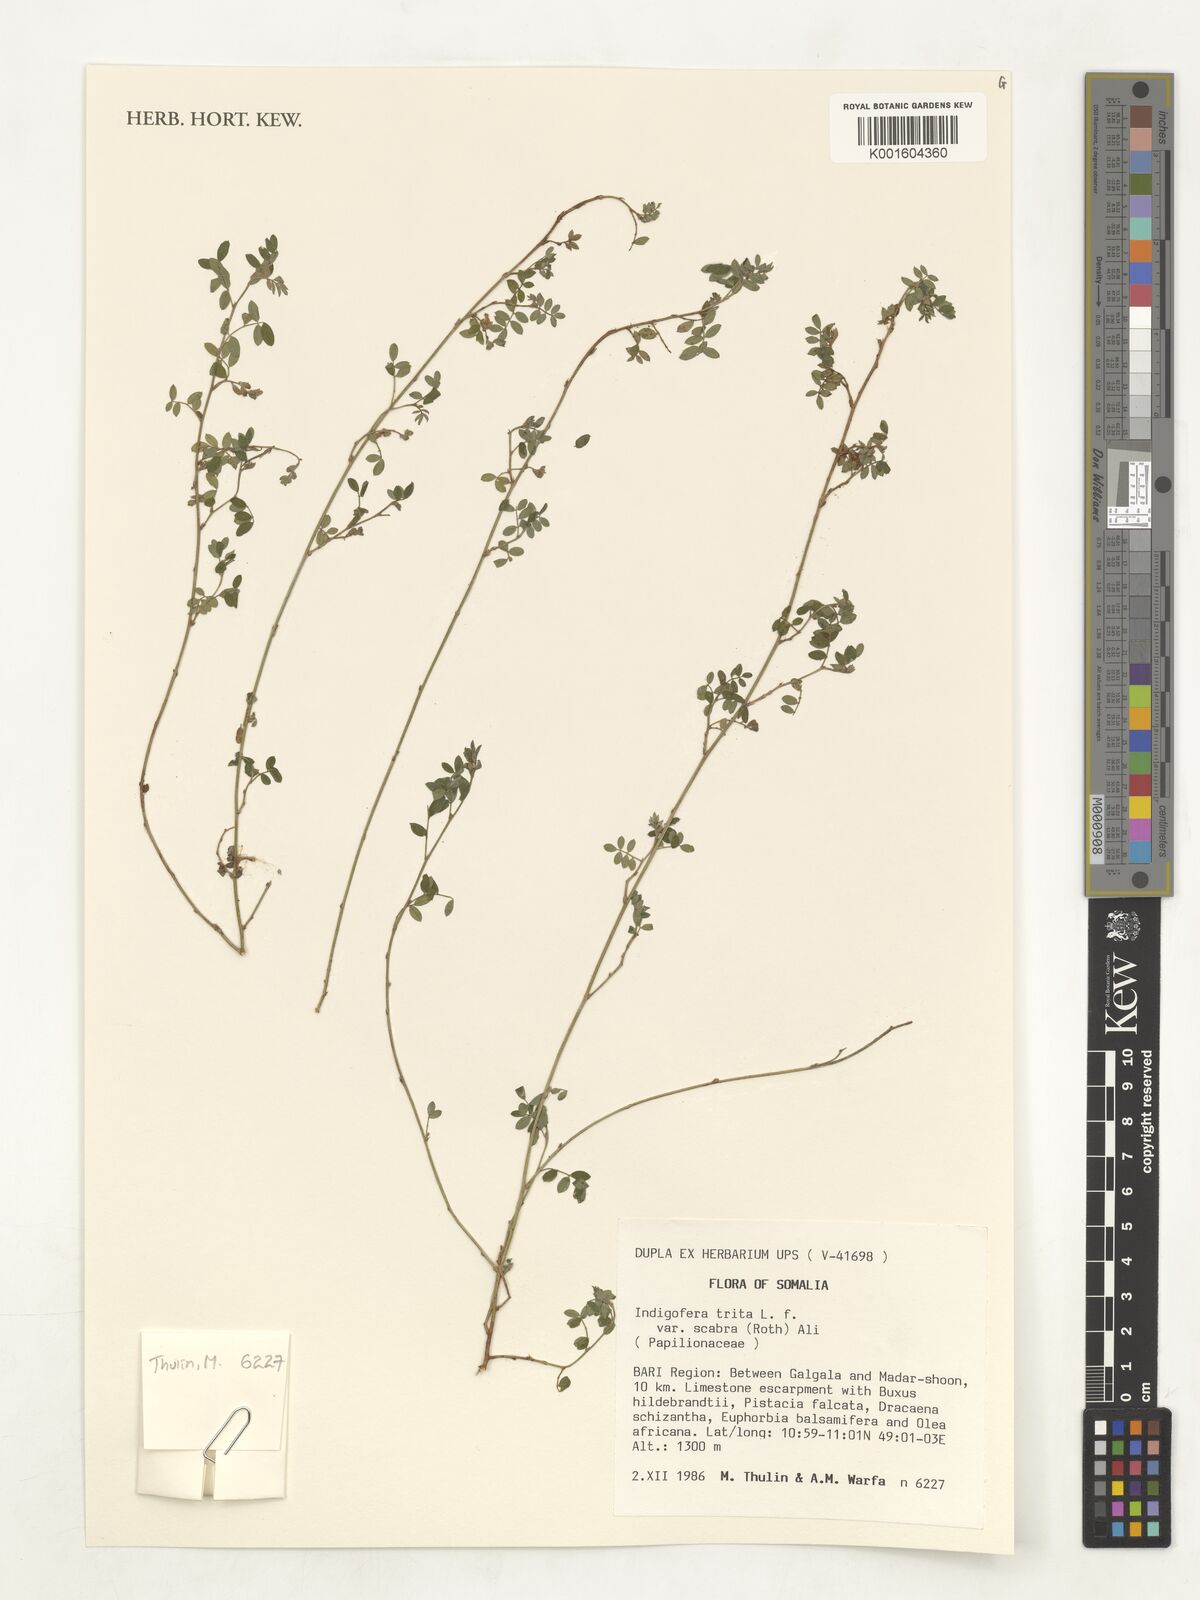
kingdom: Plantae
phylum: Tracheophyta
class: Magnoliopsida
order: Fabales
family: Fabaceae
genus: Indigofera
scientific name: Indigofera subulata
